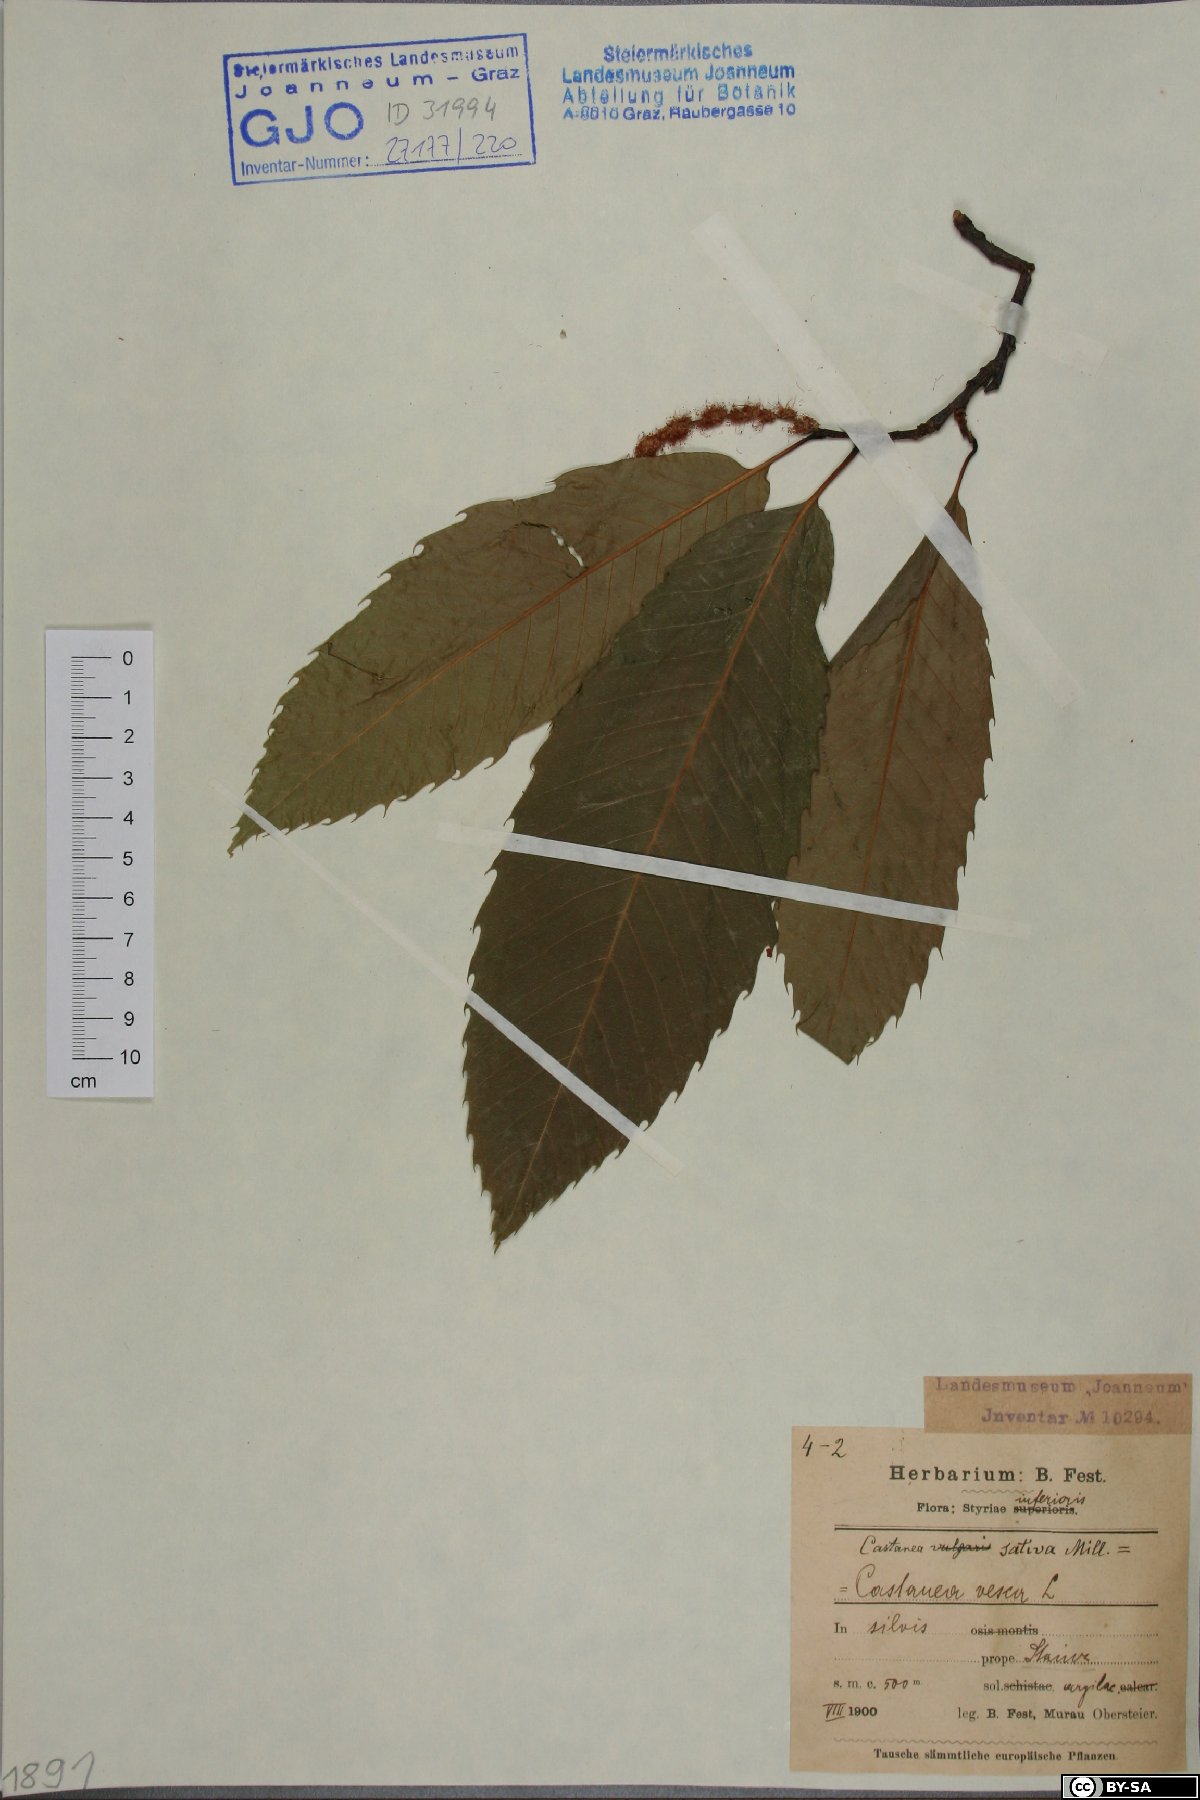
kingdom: Plantae
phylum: Tracheophyta
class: Magnoliopsida
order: Fagales
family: Fagaceae
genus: Castanea
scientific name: Castanea sativa
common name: Sweet chestnut
